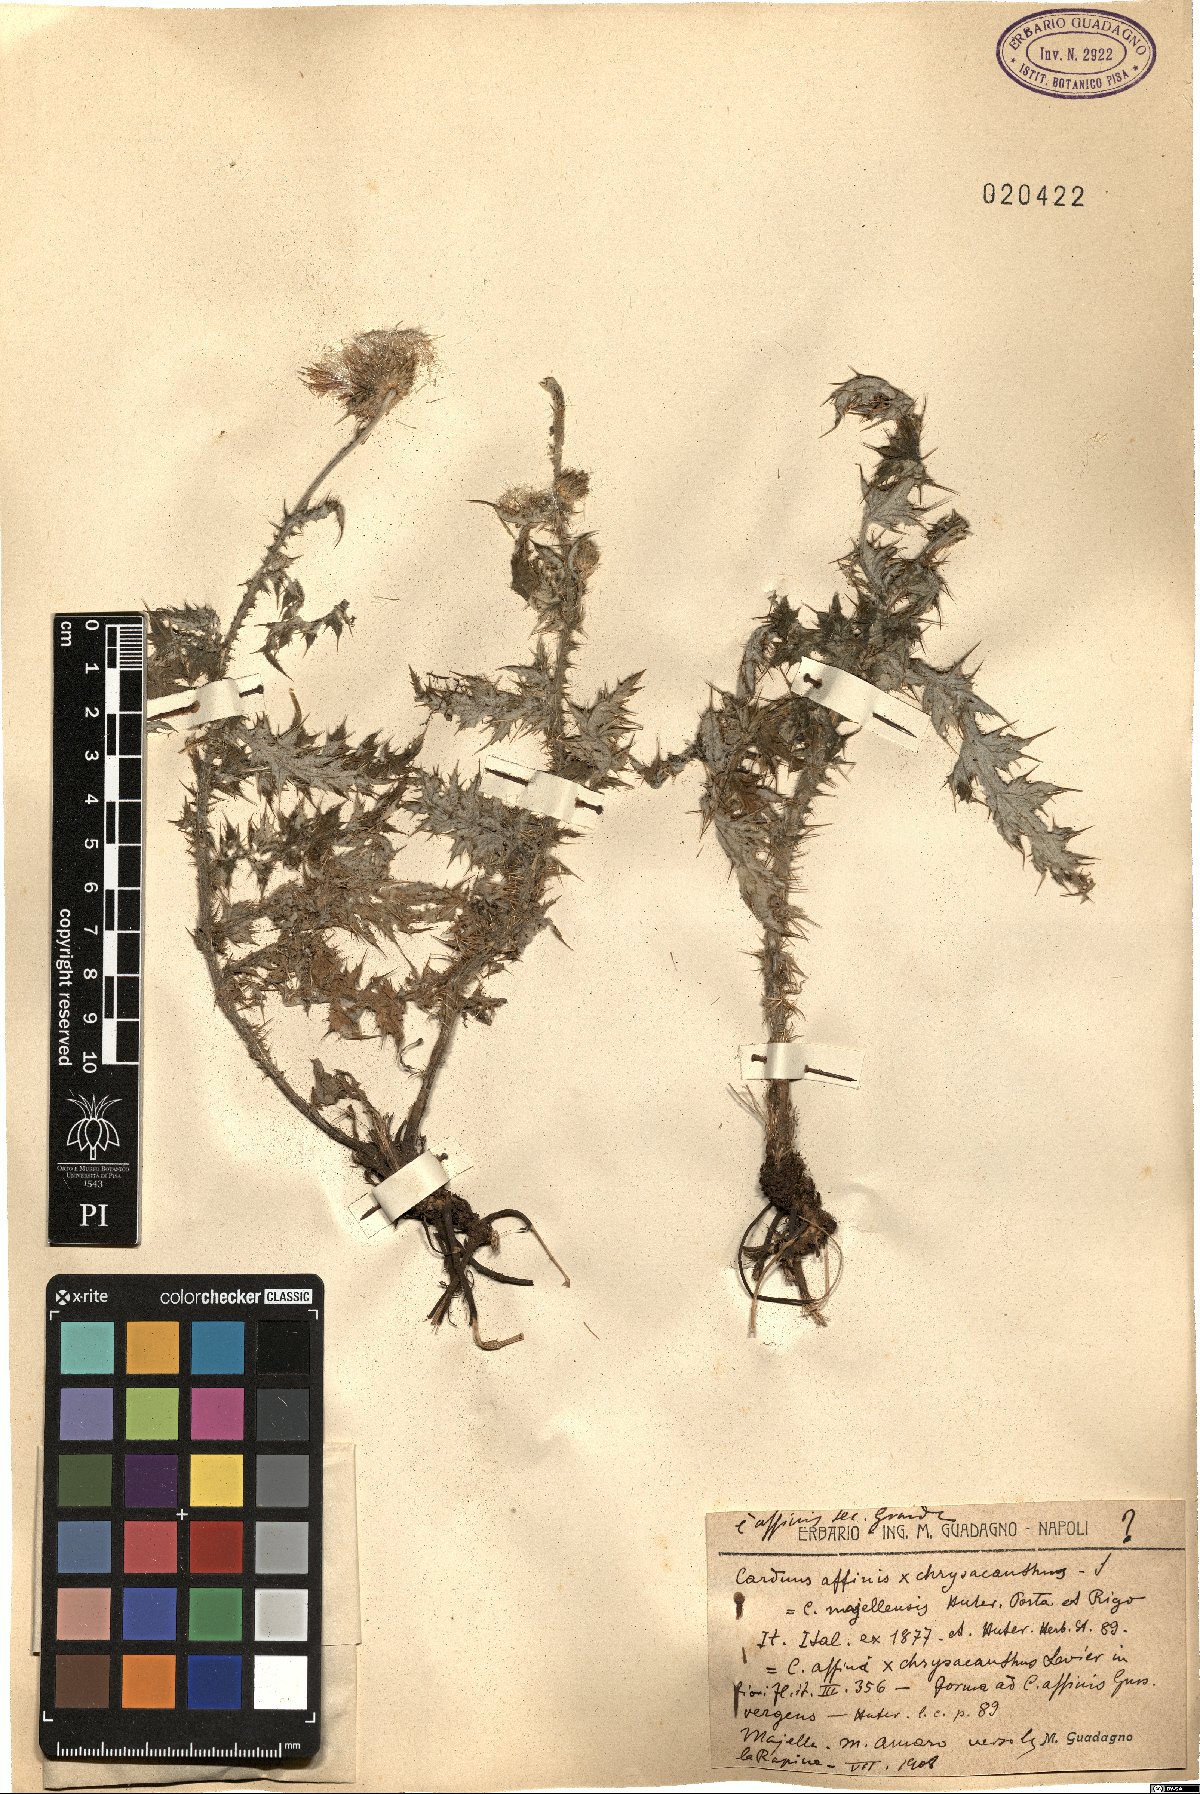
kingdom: Plantae
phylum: Tracheophyta
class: Magnoliopsida
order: Asterales
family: Asteraceae
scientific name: Asteraceae
